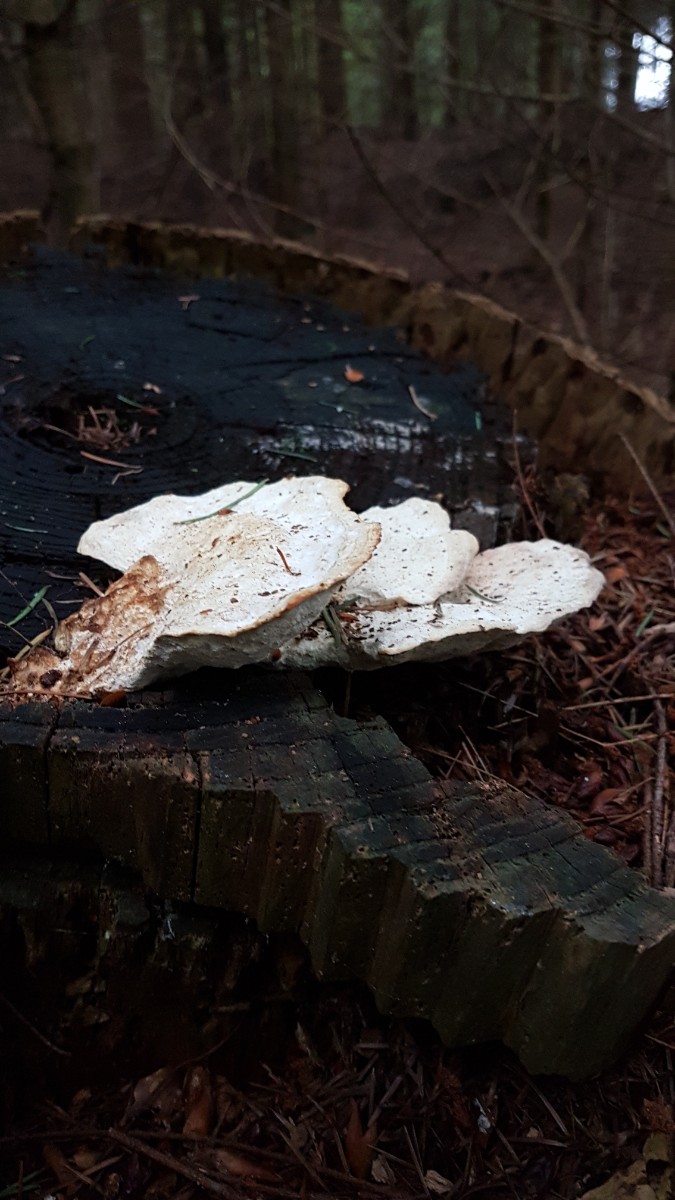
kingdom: Fungi
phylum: Basidiomycota
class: Agaricomycetes
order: Polyporales
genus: Calcipostia
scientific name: Calcipostia guttulata
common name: dråbe-kødporesvamp
